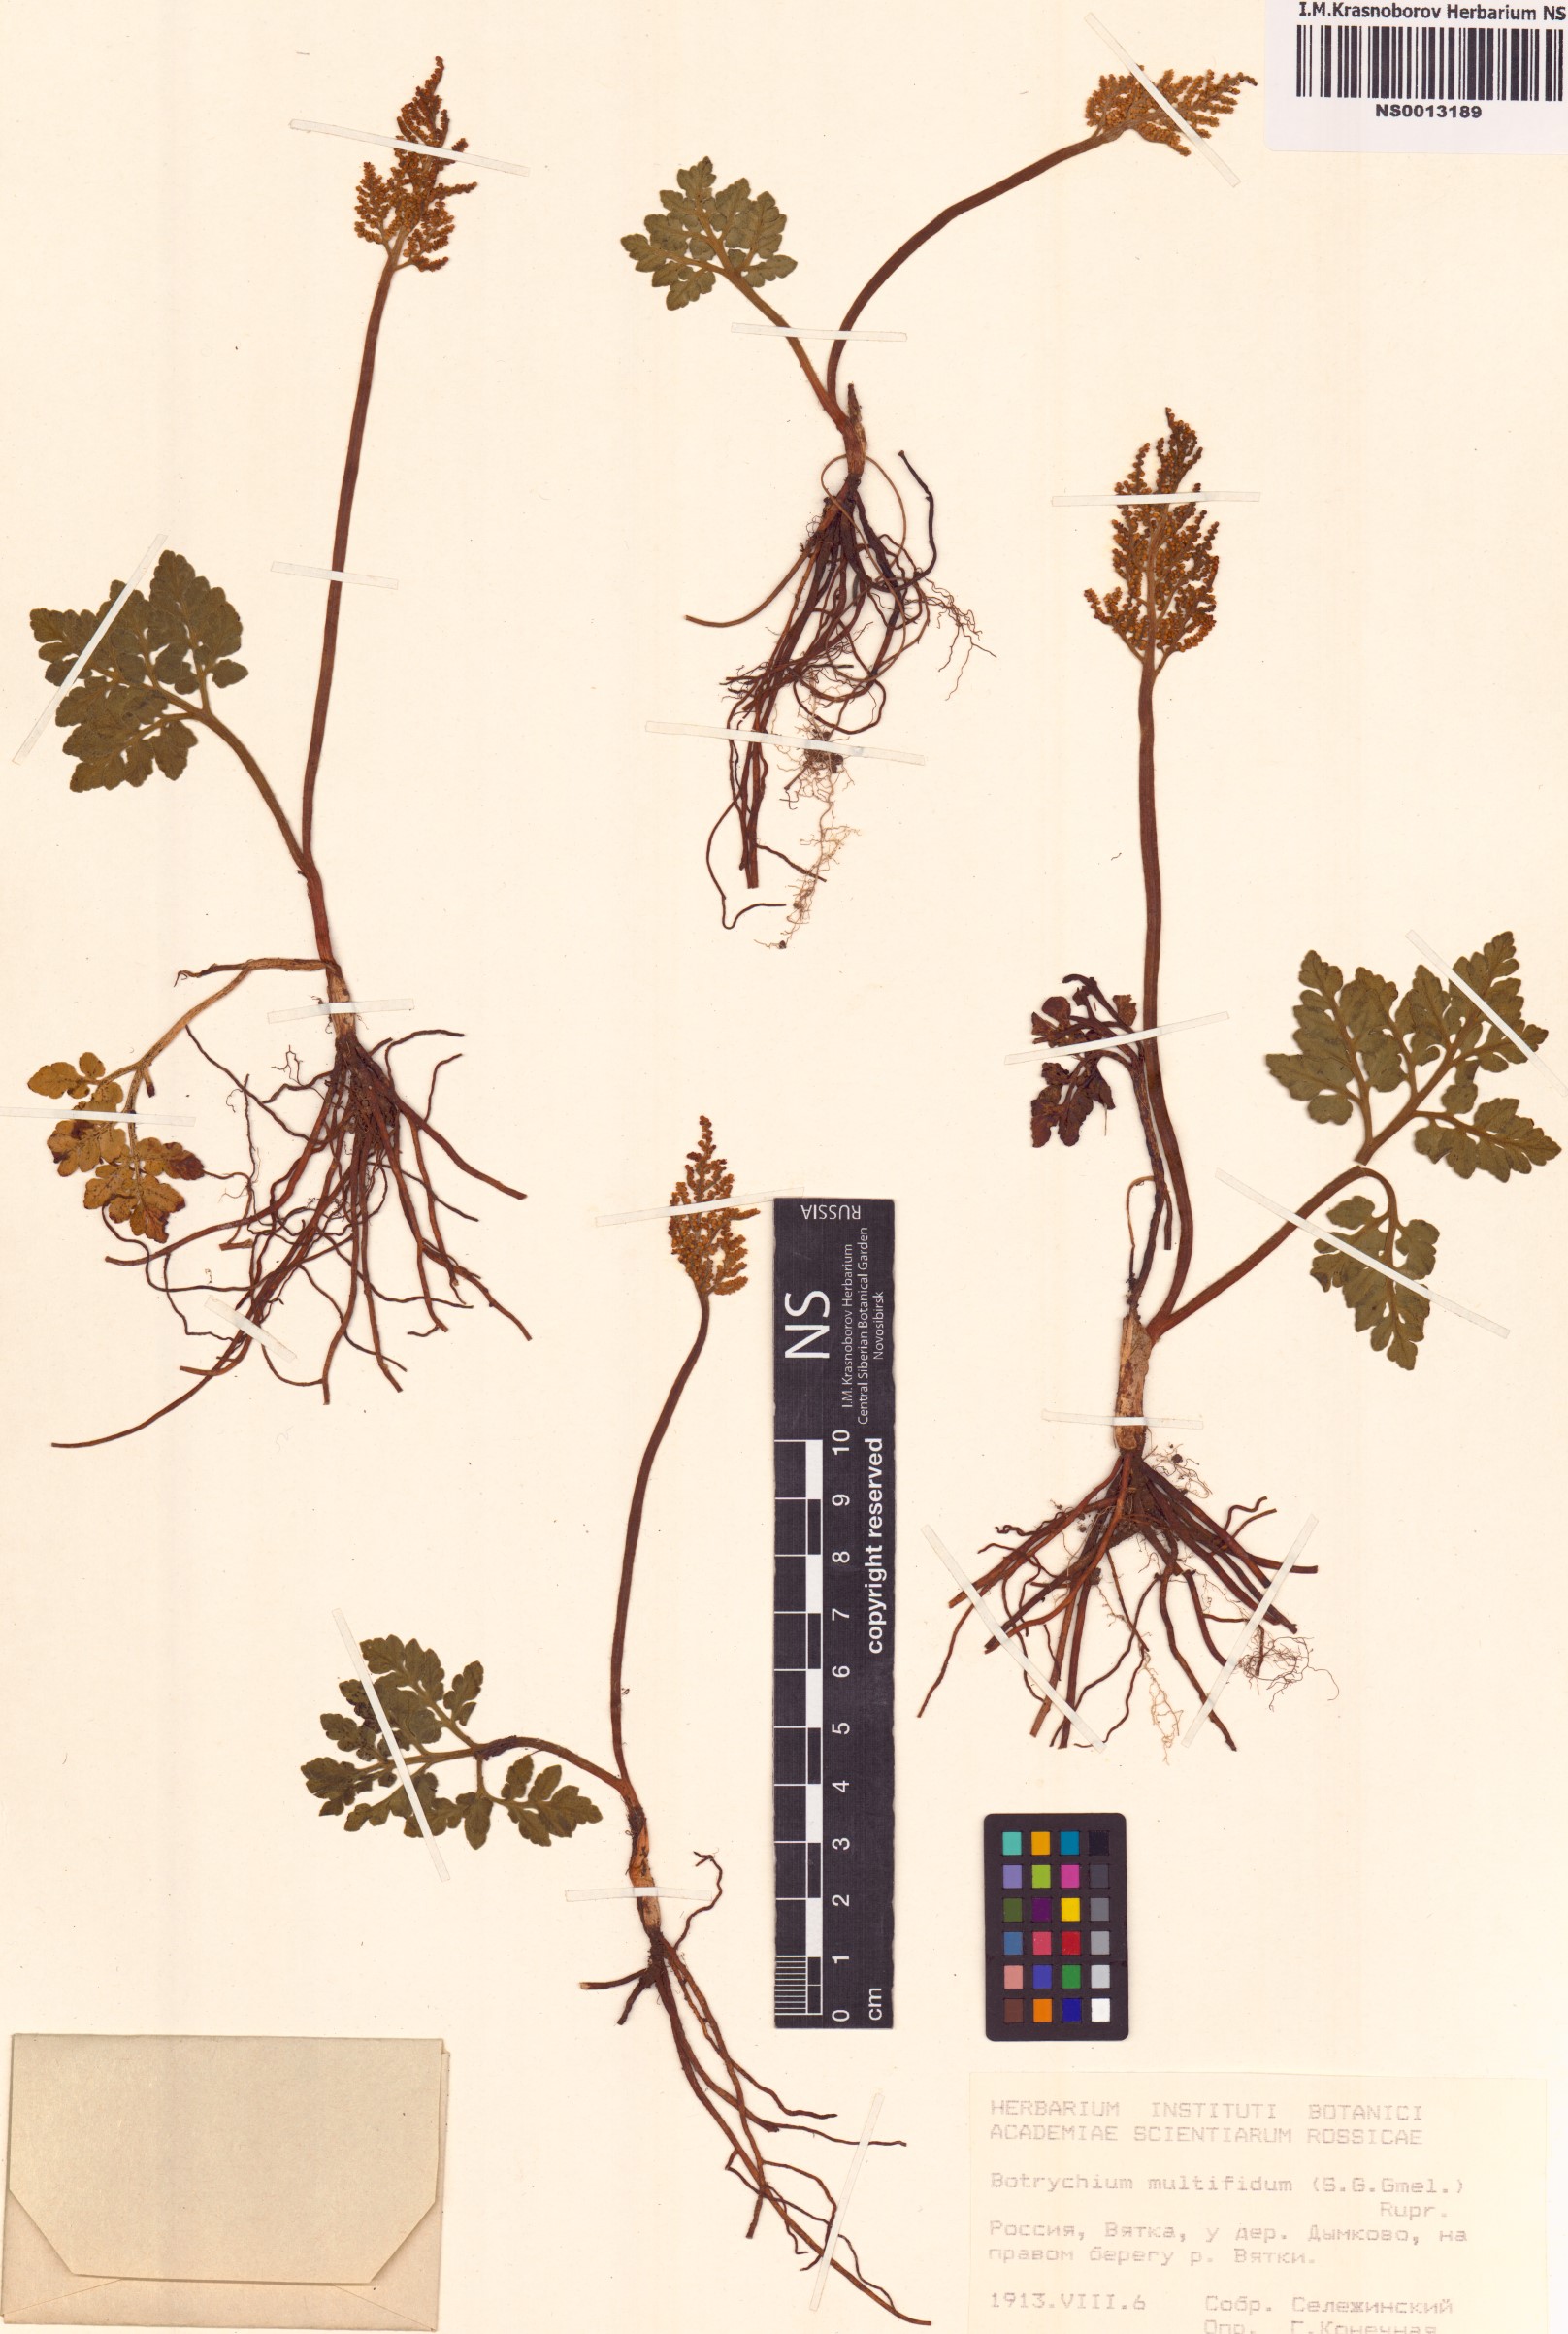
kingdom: Plantae
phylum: Tracheophyta
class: Polypodiopsida
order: Ophioglossales
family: Ophioglossaceae
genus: Sceptridium
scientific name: Sceptridium multifidum
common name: Leathery grape fern
